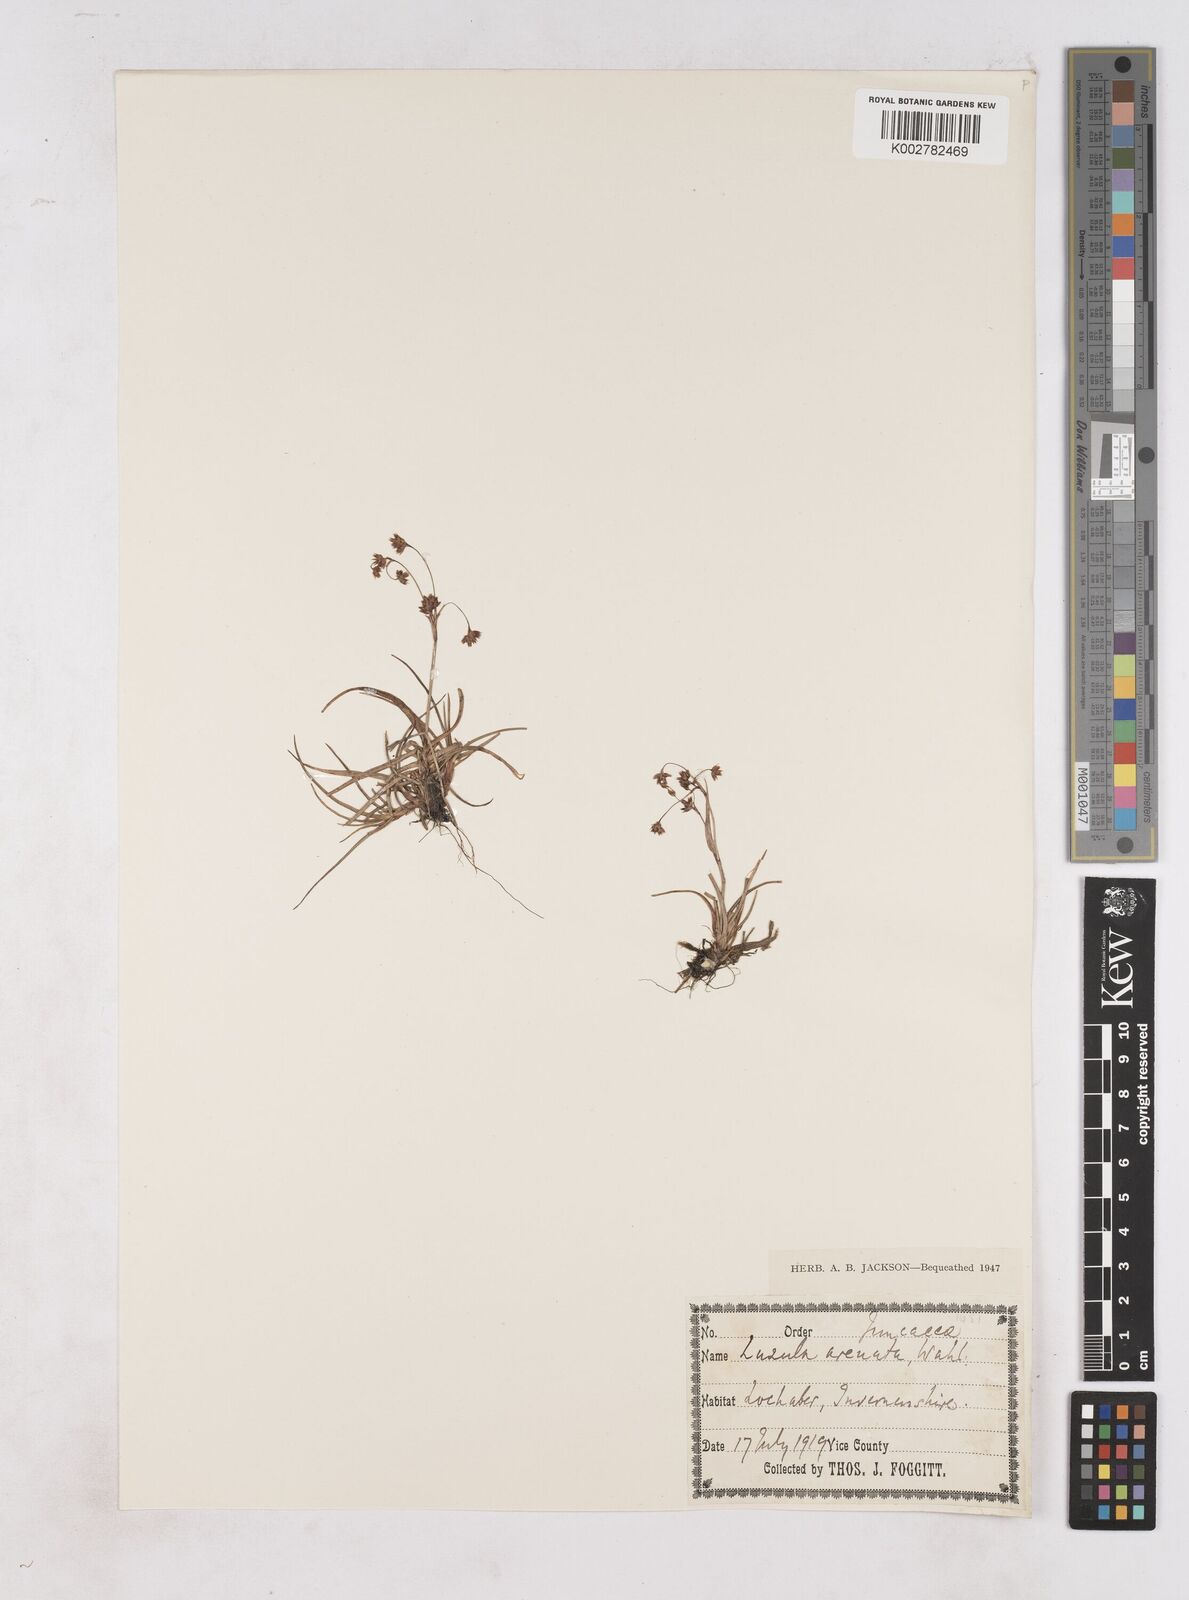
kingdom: Plantae
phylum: Tracheophyta
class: Liliopsida
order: Poales
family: Juncaceae
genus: Luzula
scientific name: Luzula arcuata
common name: Curved wood-rush
